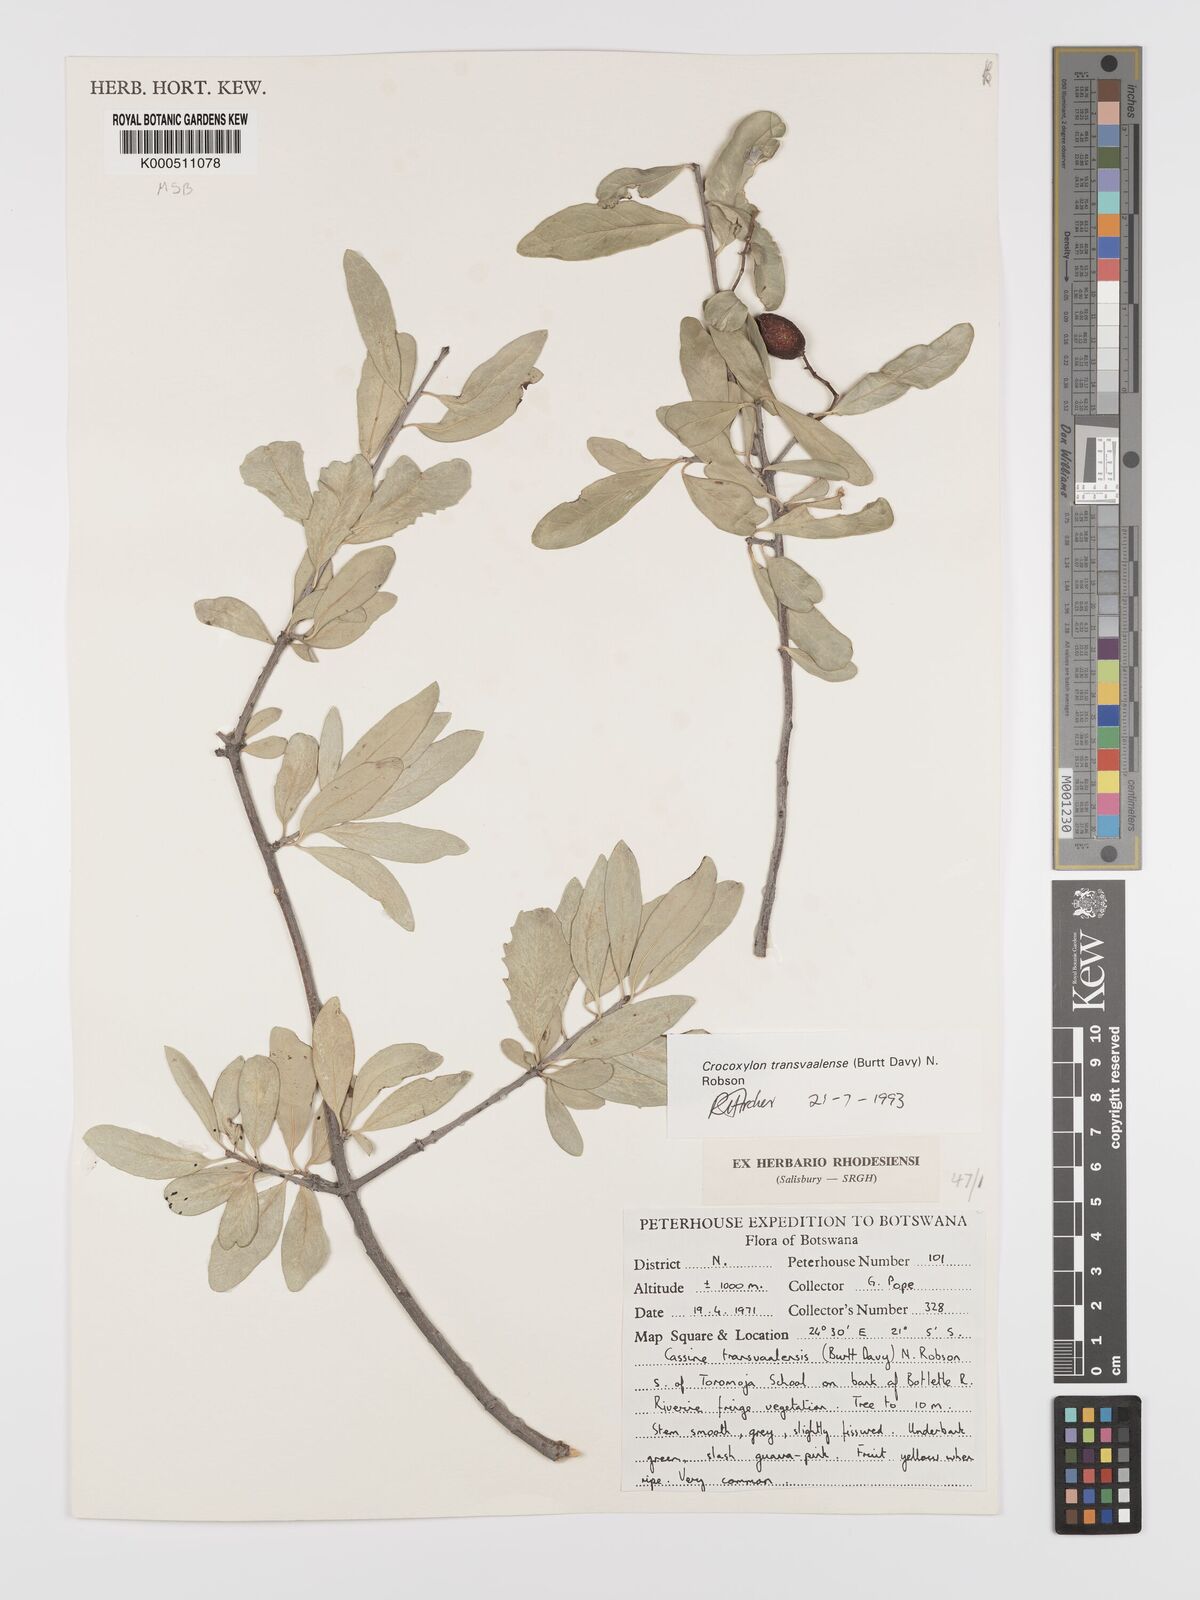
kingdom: Plantae
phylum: Tracheophyta
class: Magnoliopsida
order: Celastrales
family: Celastraceae
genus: Elaeodendron
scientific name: Elaeodendron transvaalense
